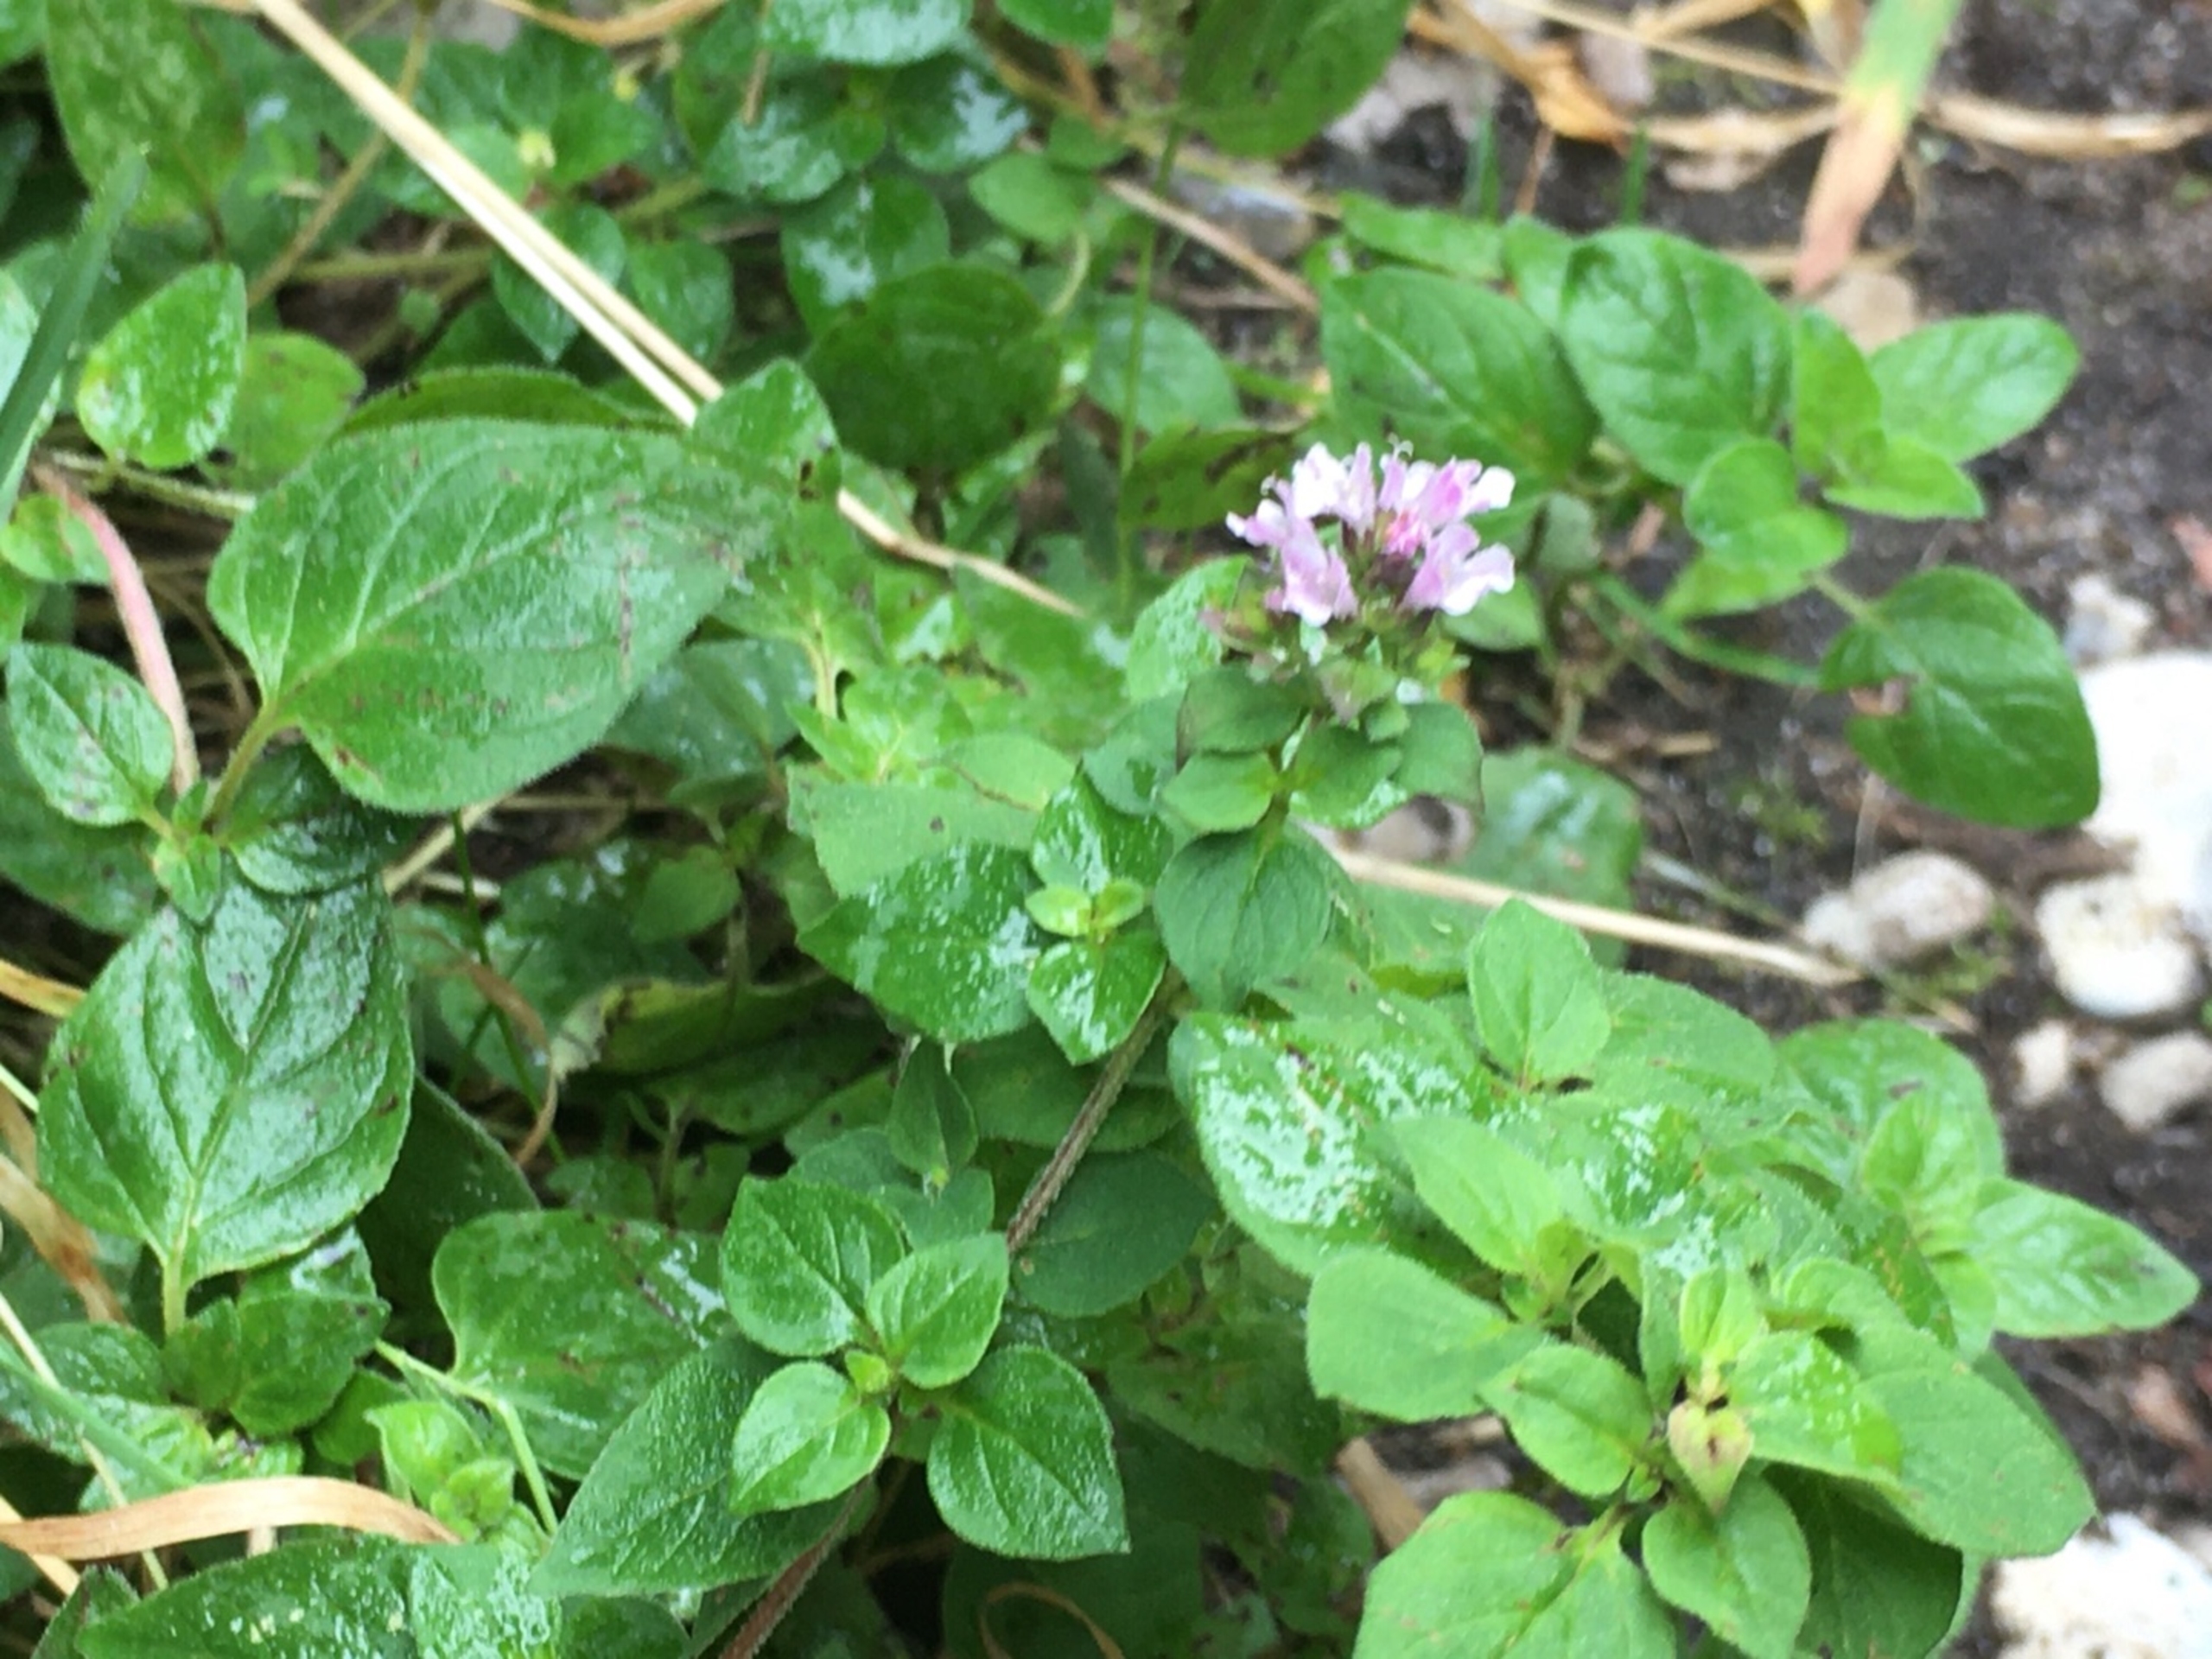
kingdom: Plantae
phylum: Tracheophyta
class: Magnoliopsida
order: Lamiales
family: Lamiaceae
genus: Origanum
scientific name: Origanum vulgare
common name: Merian
